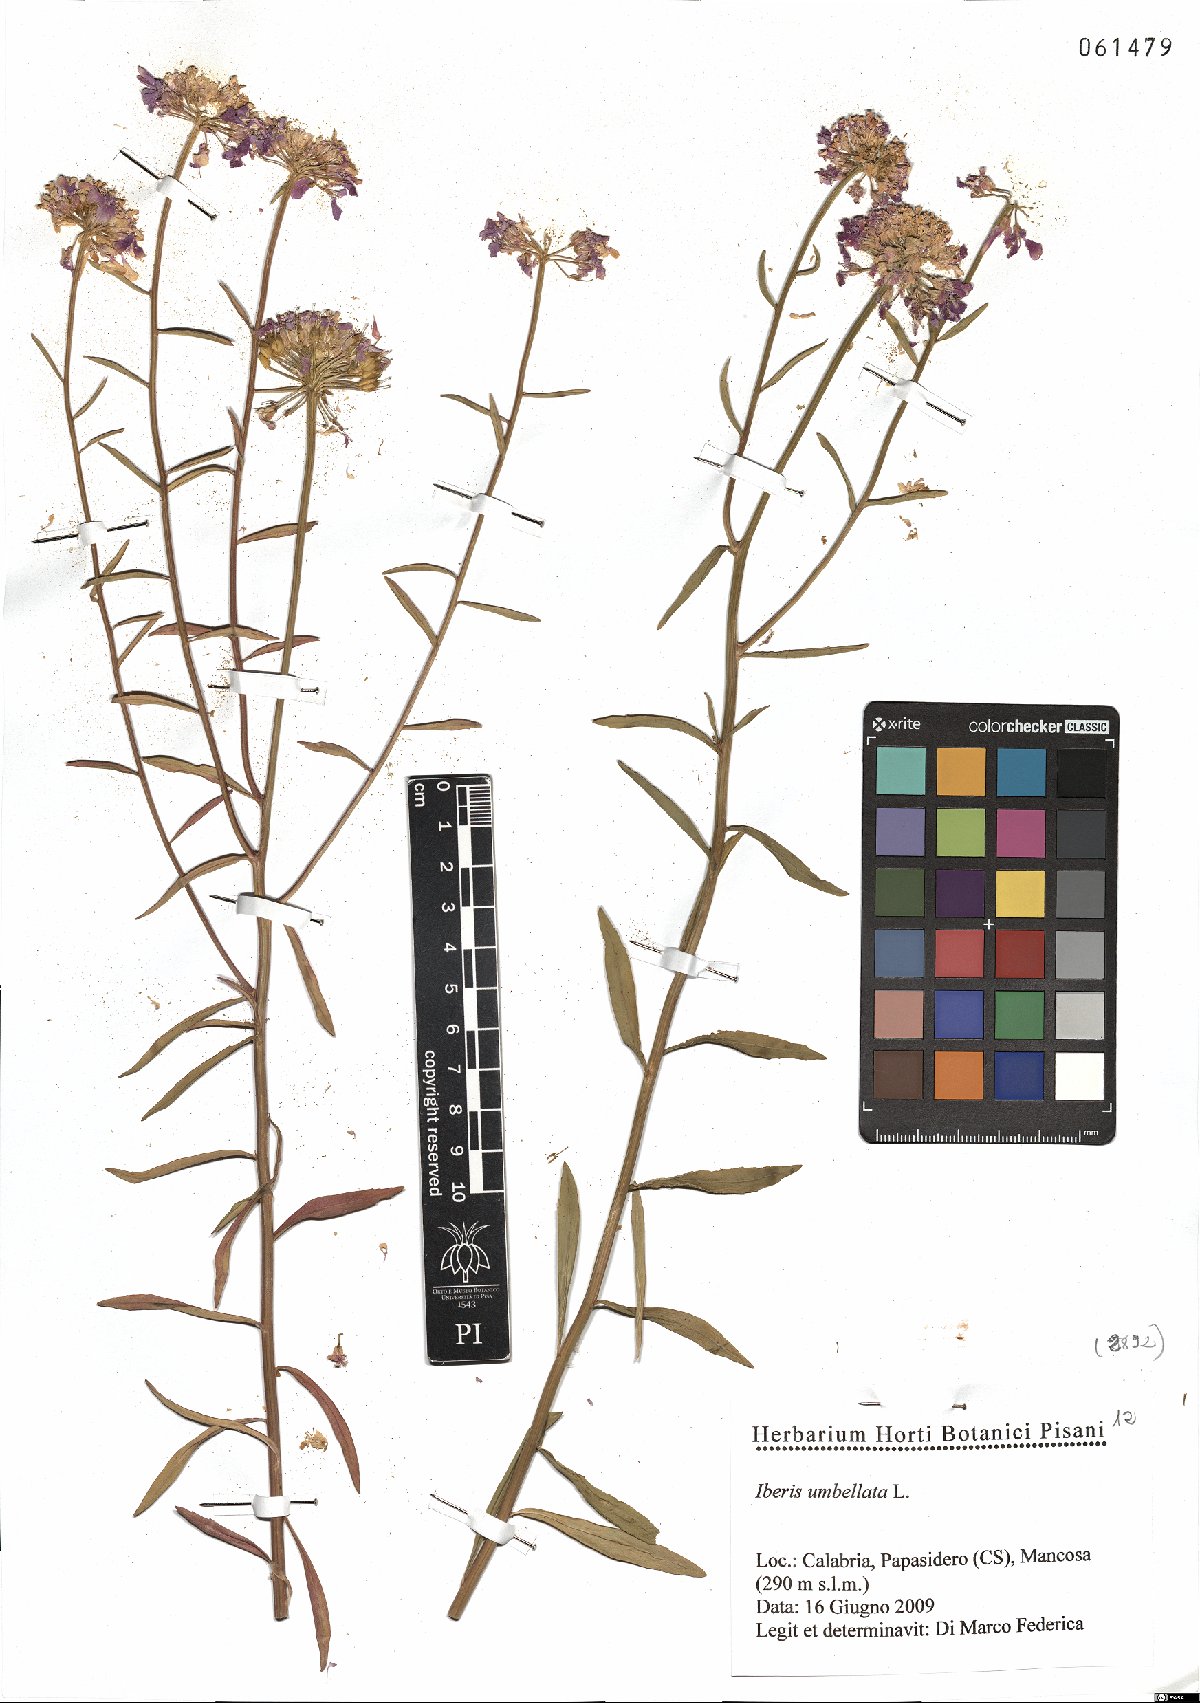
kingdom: Plantae
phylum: Tracheophyta
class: Magnoliopsida
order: Brassicales
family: Brassicaceae
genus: Iberis
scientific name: Iberis umbellata
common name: Globe candytuft
